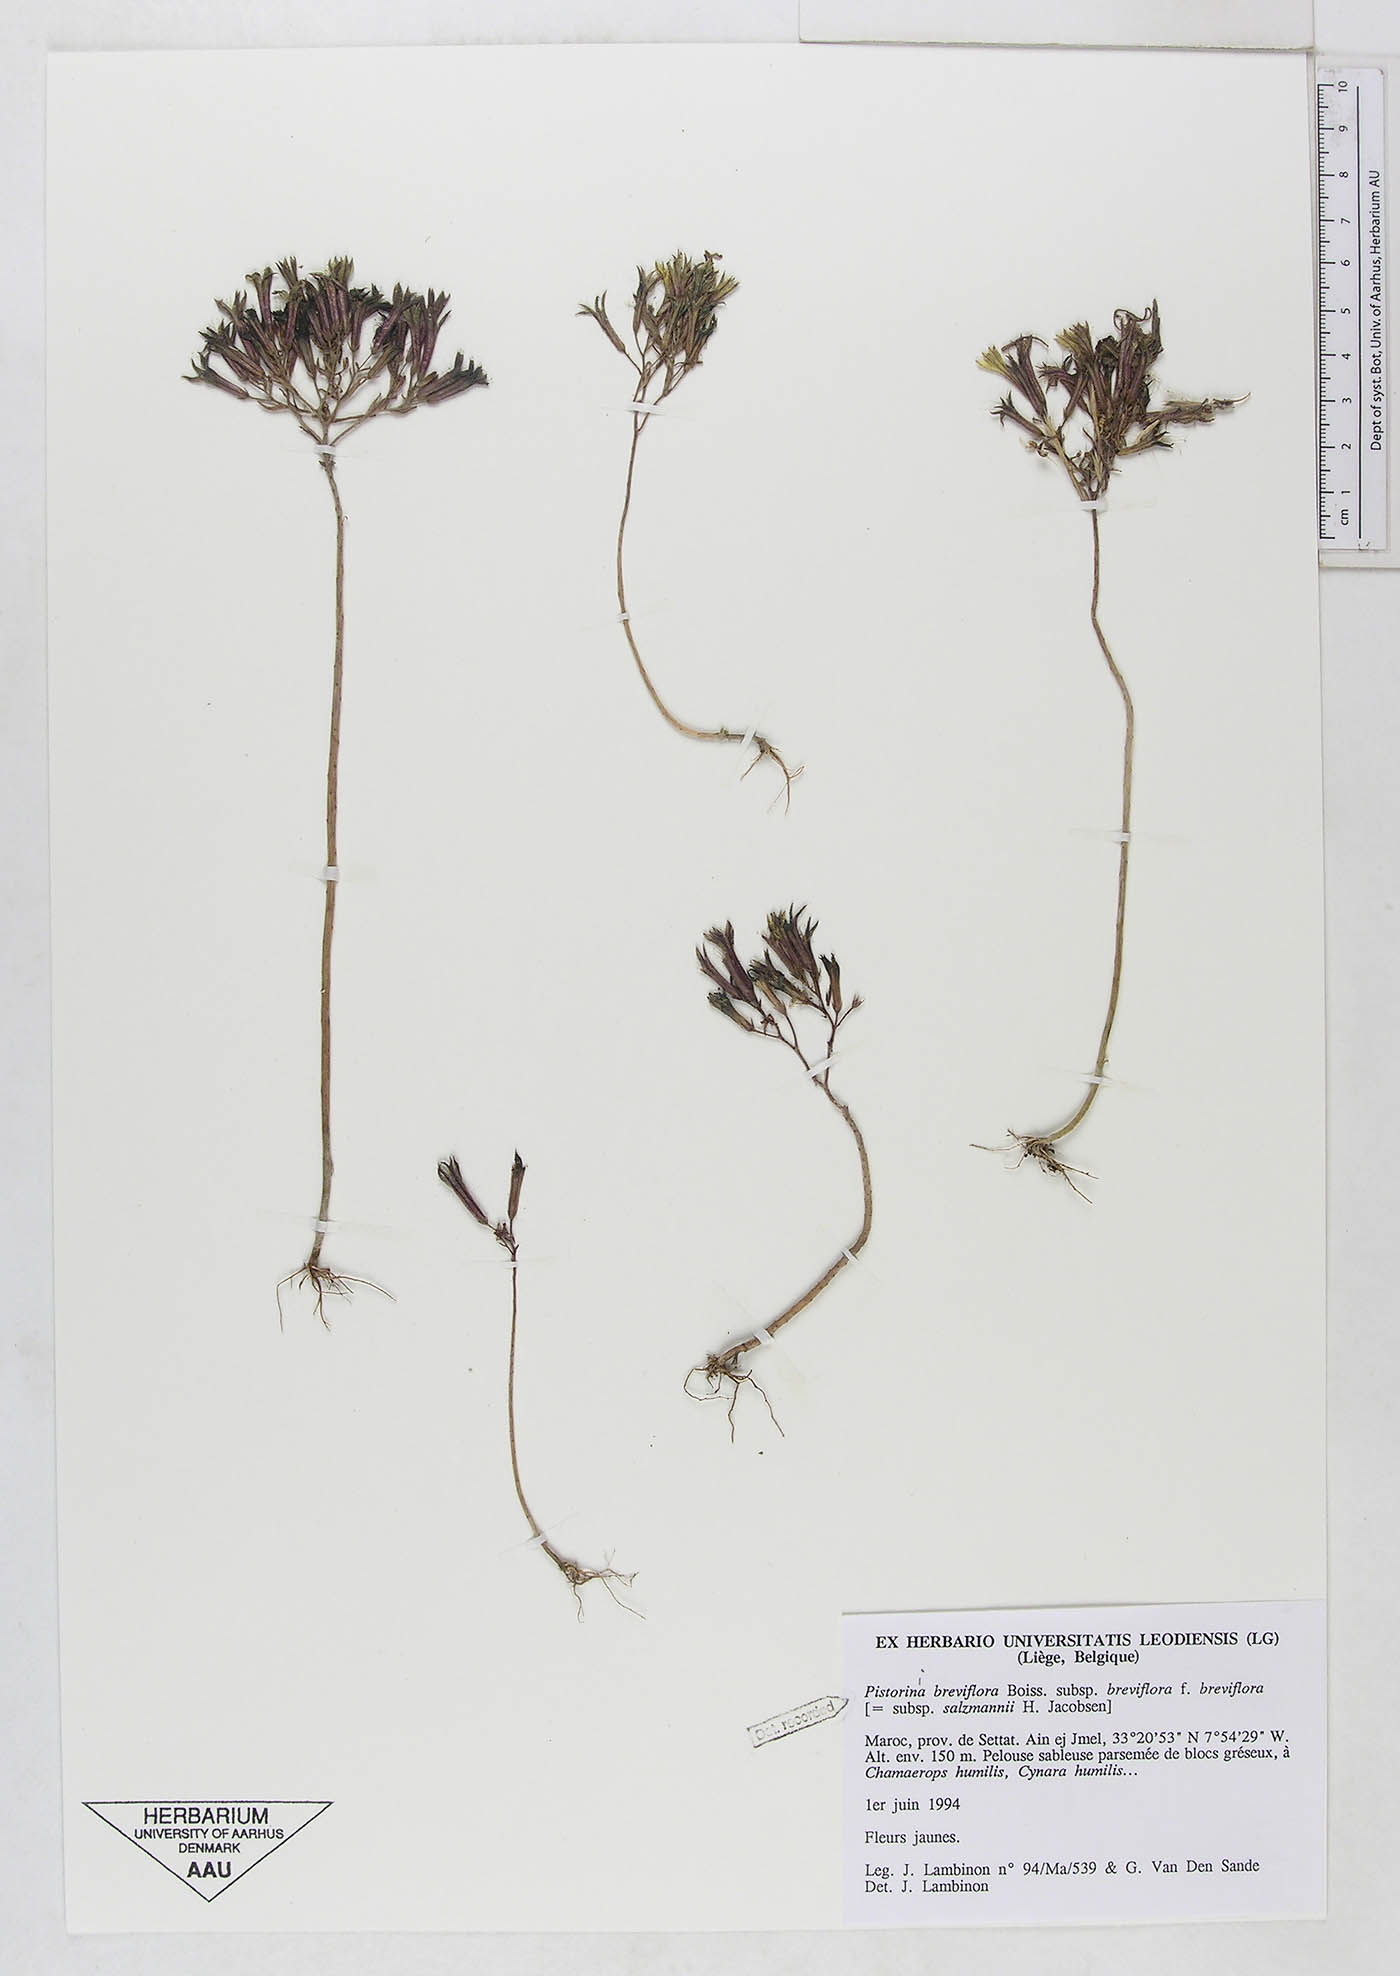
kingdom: Plantae
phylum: Tracheophyta
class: Magnoliopsida
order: Saxifragales
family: Crassulaceae
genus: Pistorinia
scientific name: Pistorinia breviflora
